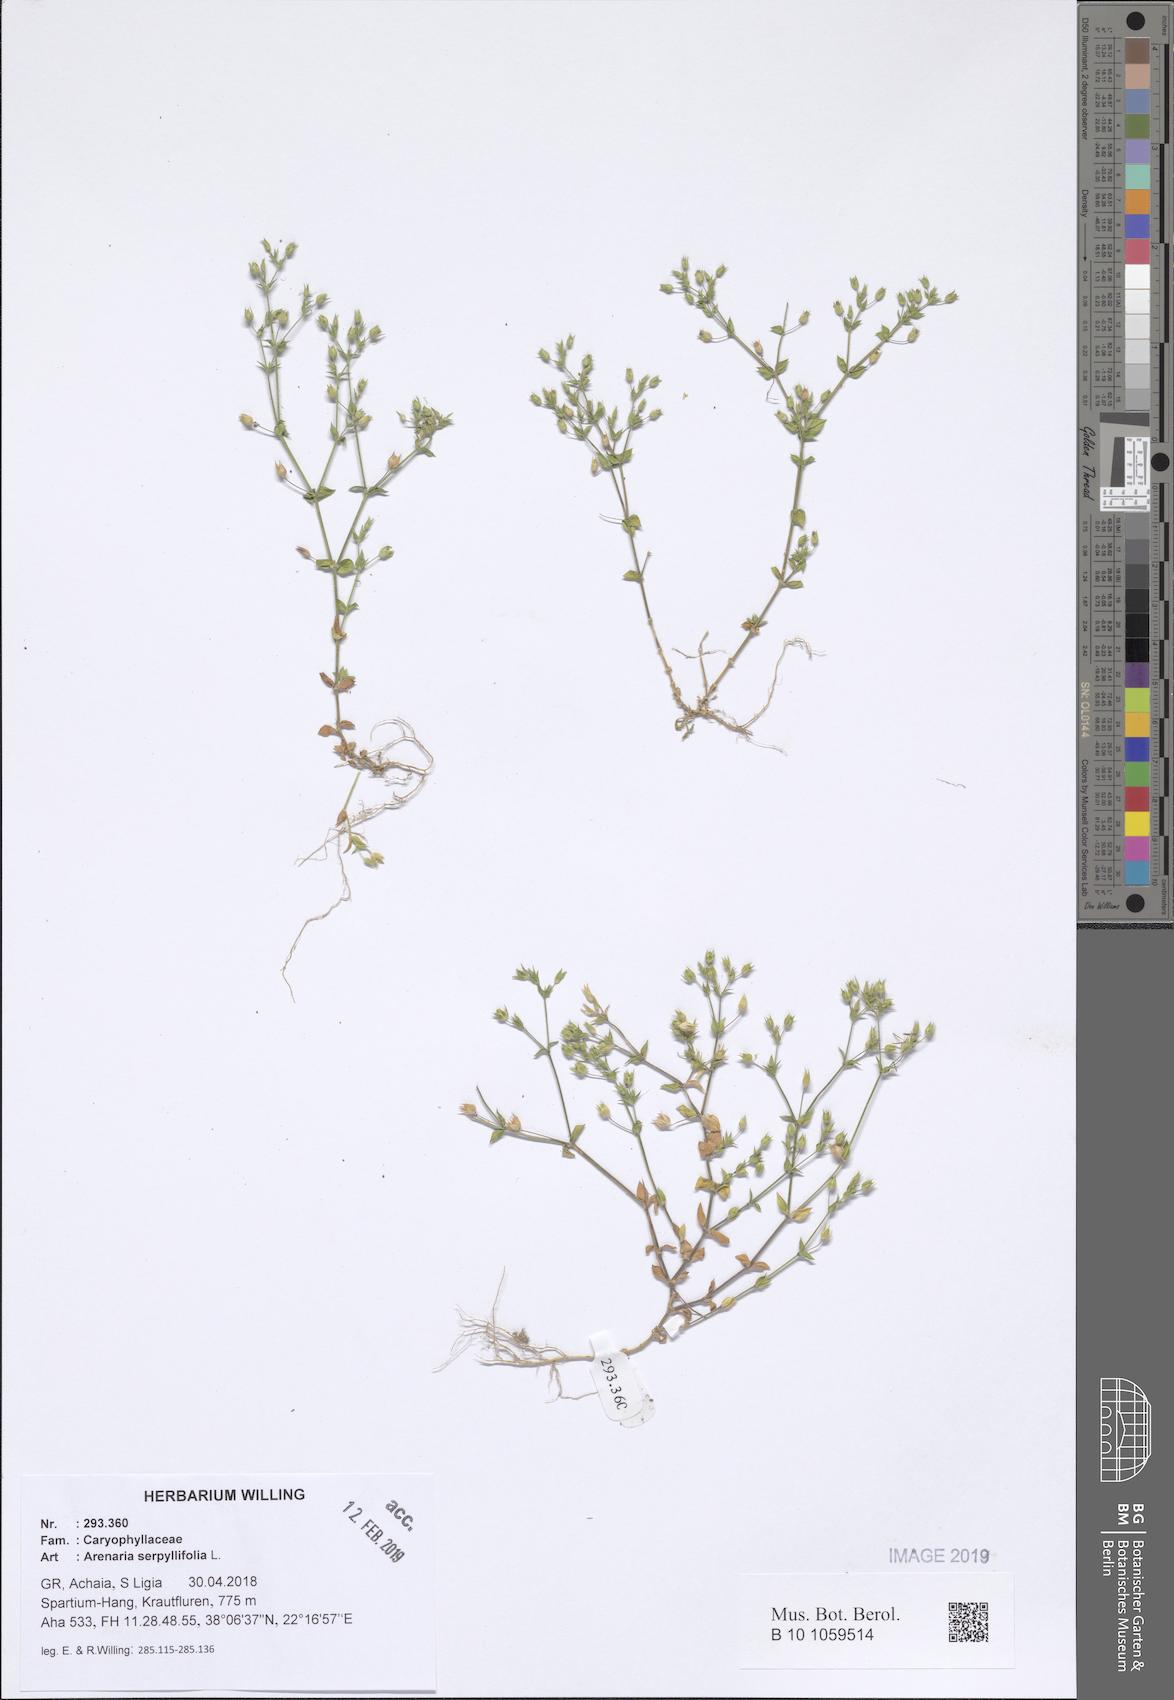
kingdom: Plantae
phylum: Tracheophyta
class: Magnoliopsida
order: Caryophyllales
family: Caryophyllaceae
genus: Arenaria
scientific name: Arenaria serpyllifolia
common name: Thyme-leaved sandwort
